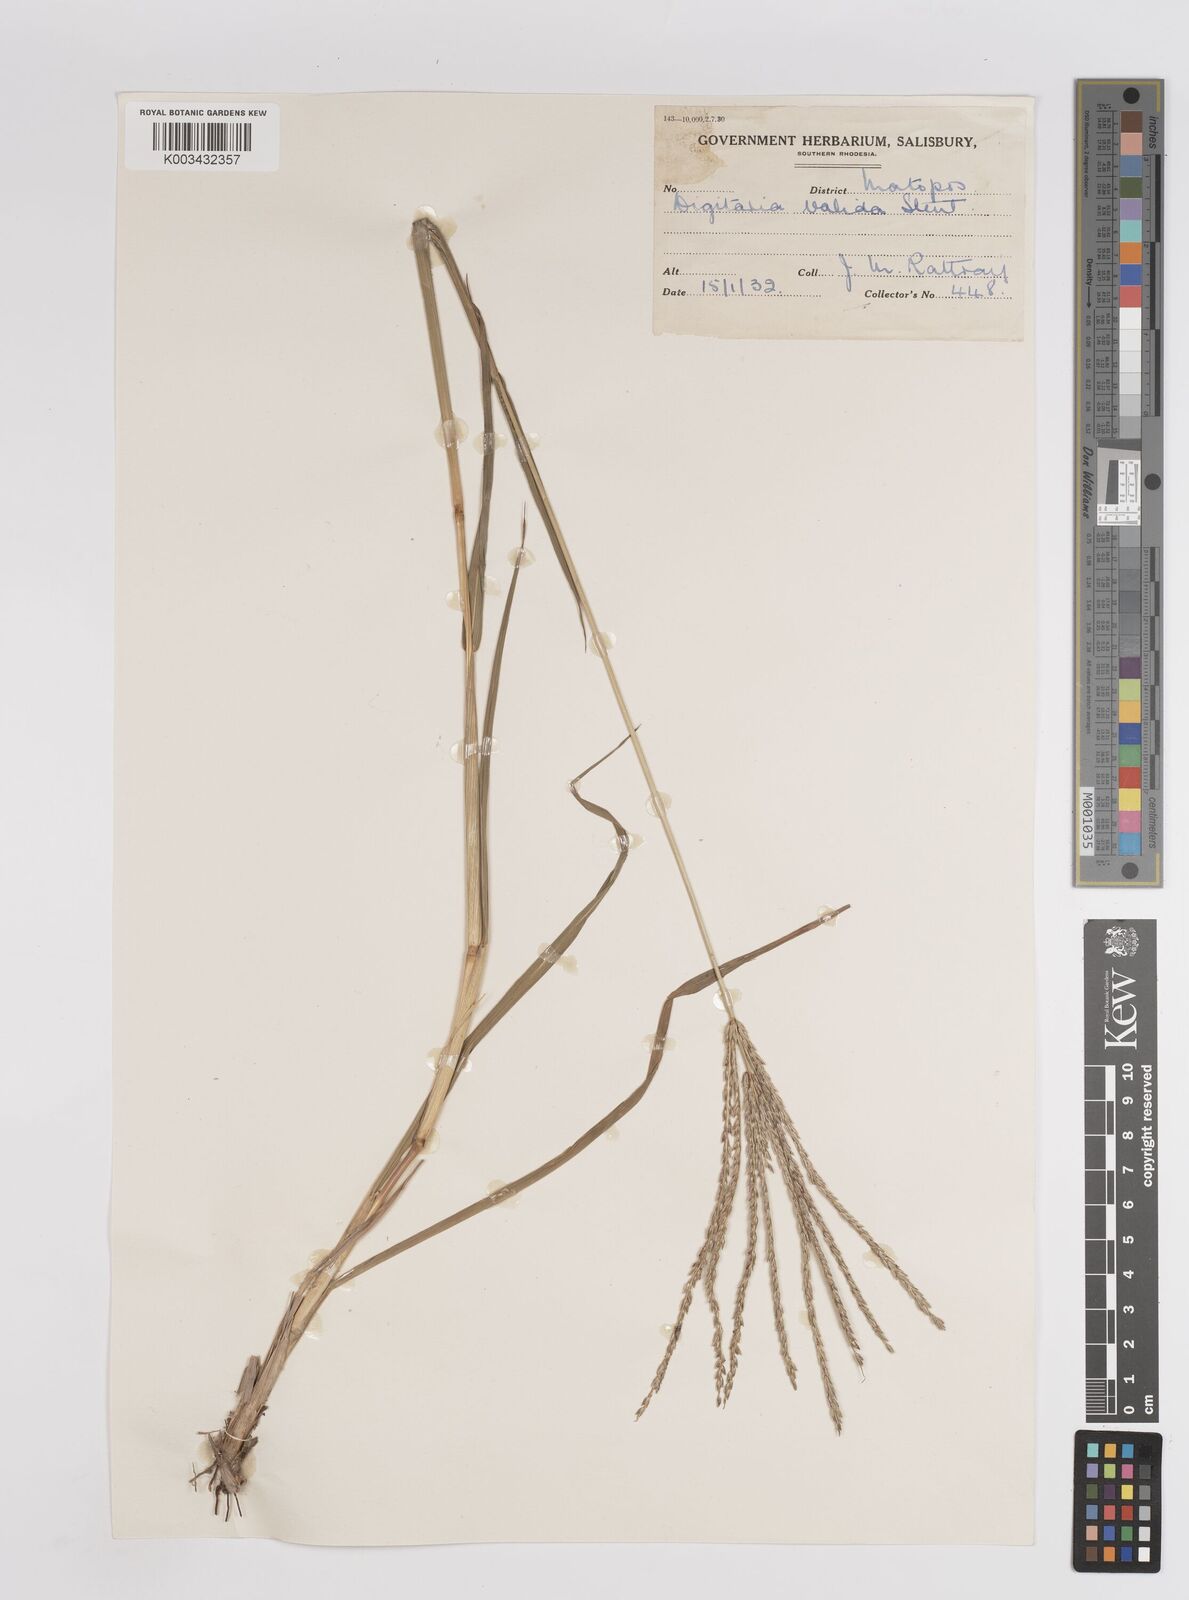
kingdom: Plantae
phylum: Tracheophyta
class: Liliopsida
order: Poales
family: Poaceae
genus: Digitaria
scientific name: Digitaria eriantha
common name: Digitgrass
